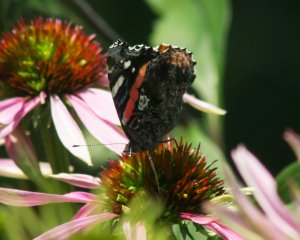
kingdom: Animalia
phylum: Arthropoda
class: Insecta
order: Lepidoptera
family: Nymphalidae
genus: Vanessa
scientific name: Vanessa atalanta
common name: Red Admiral
